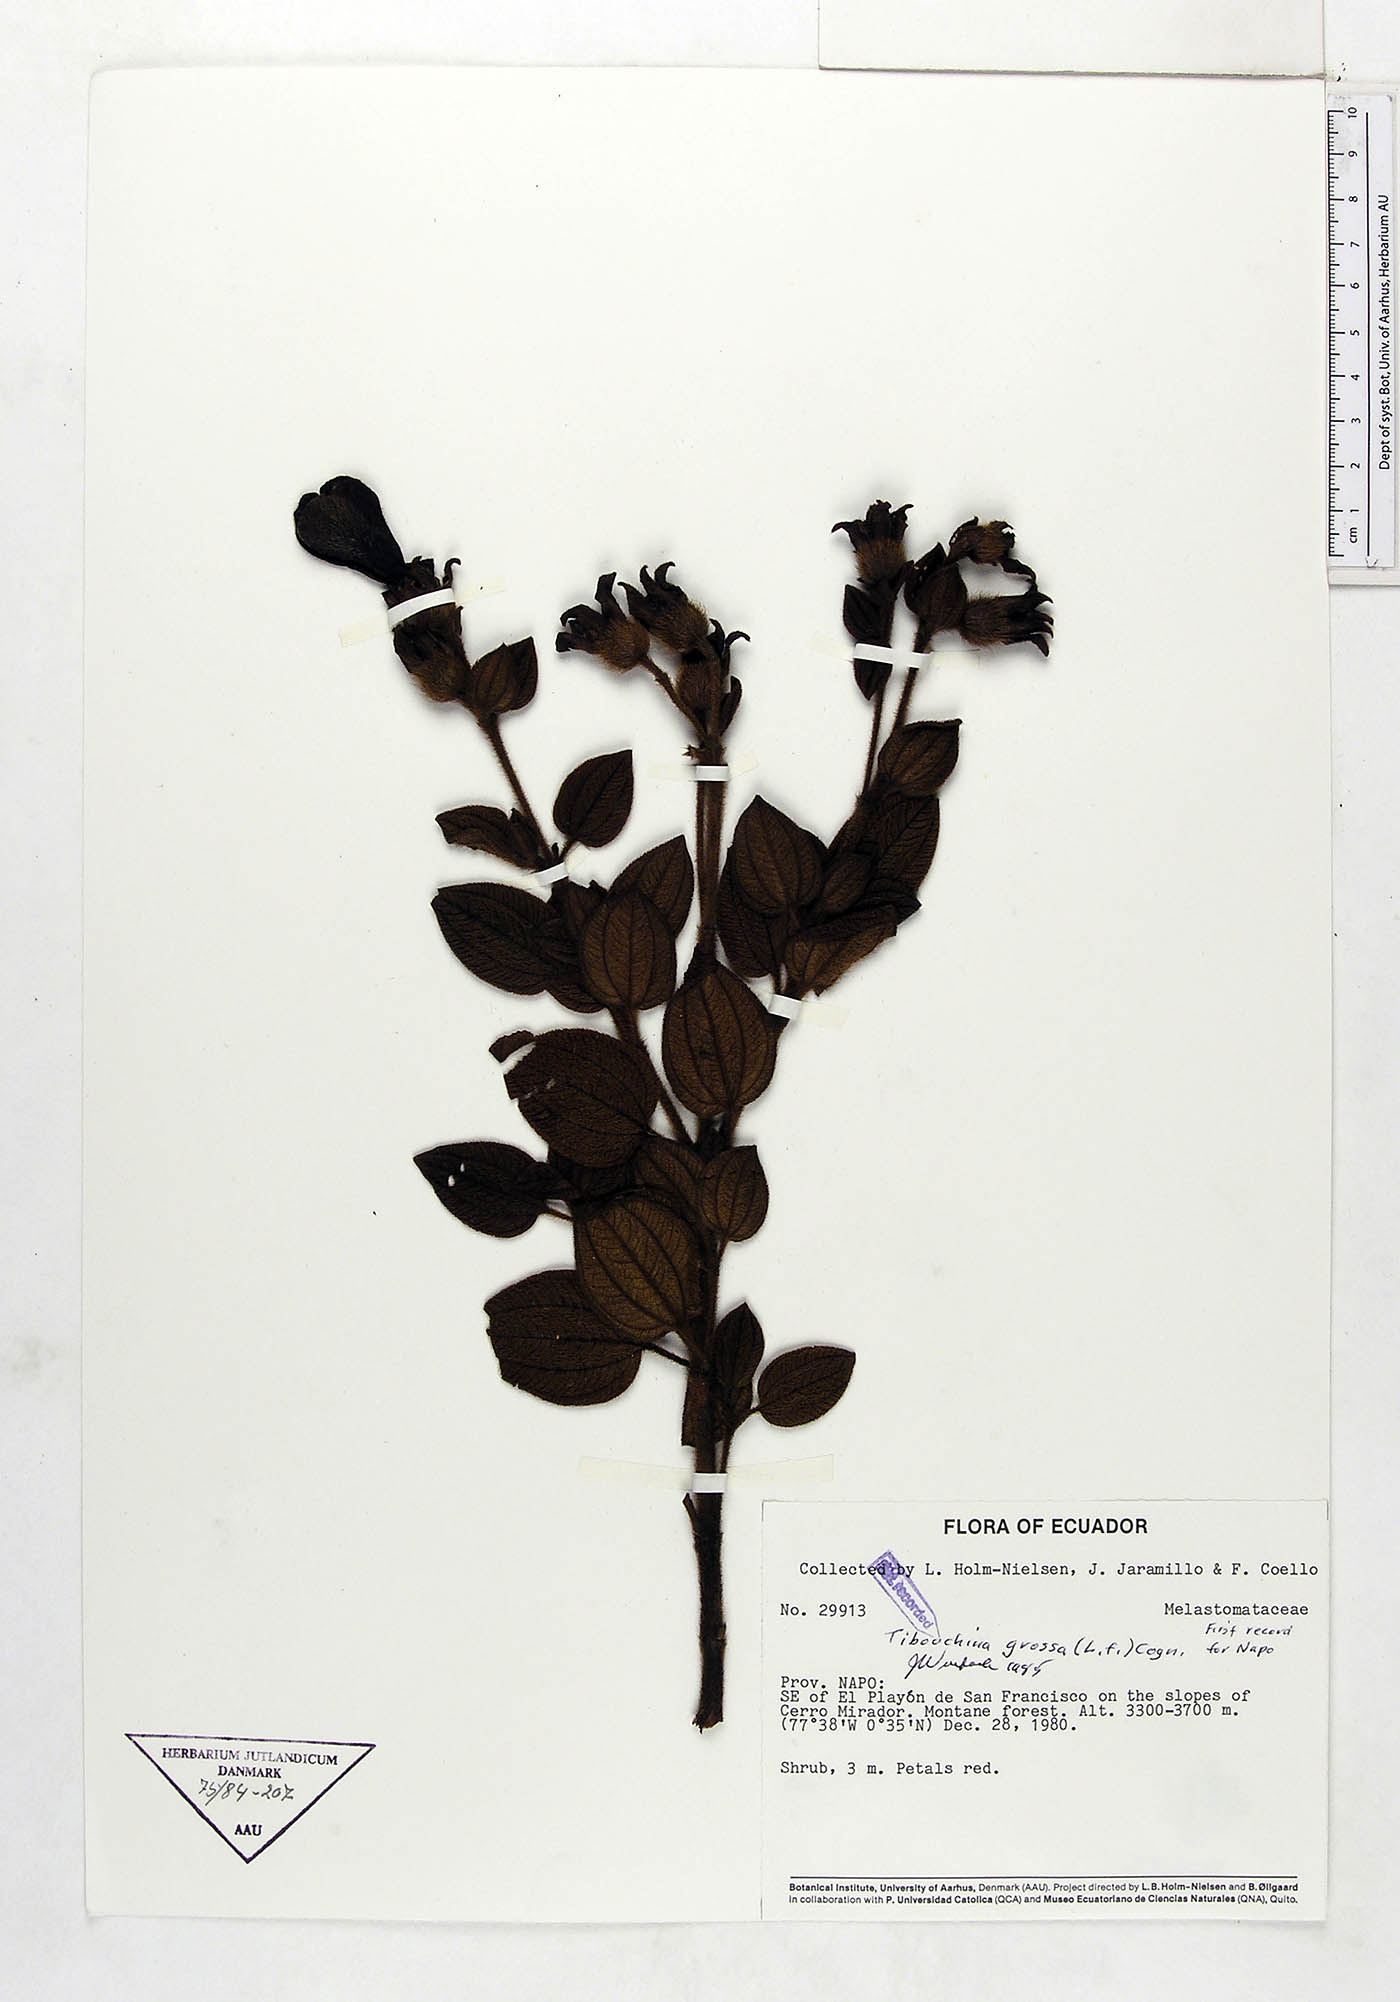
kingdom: Plantae
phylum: Tracheophyta
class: Magnoliopsida
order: Myrtales
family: Melastomataceae
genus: Chaetogastra
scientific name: Chaetogastra grossa
